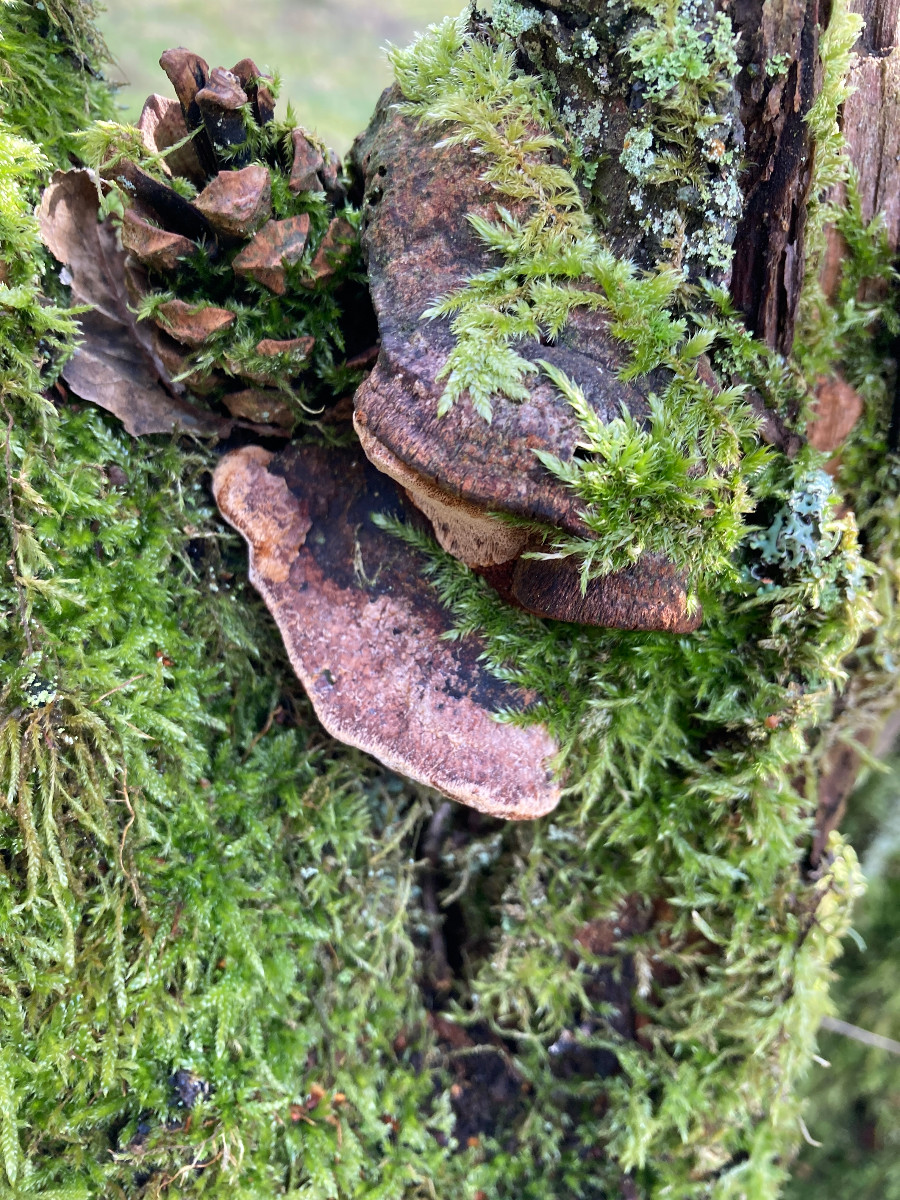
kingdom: Fungi
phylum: Basidiomycota
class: Agaricomycetes
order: Hymenochaetales
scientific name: Hymenochaetales
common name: børstesvampordenen
